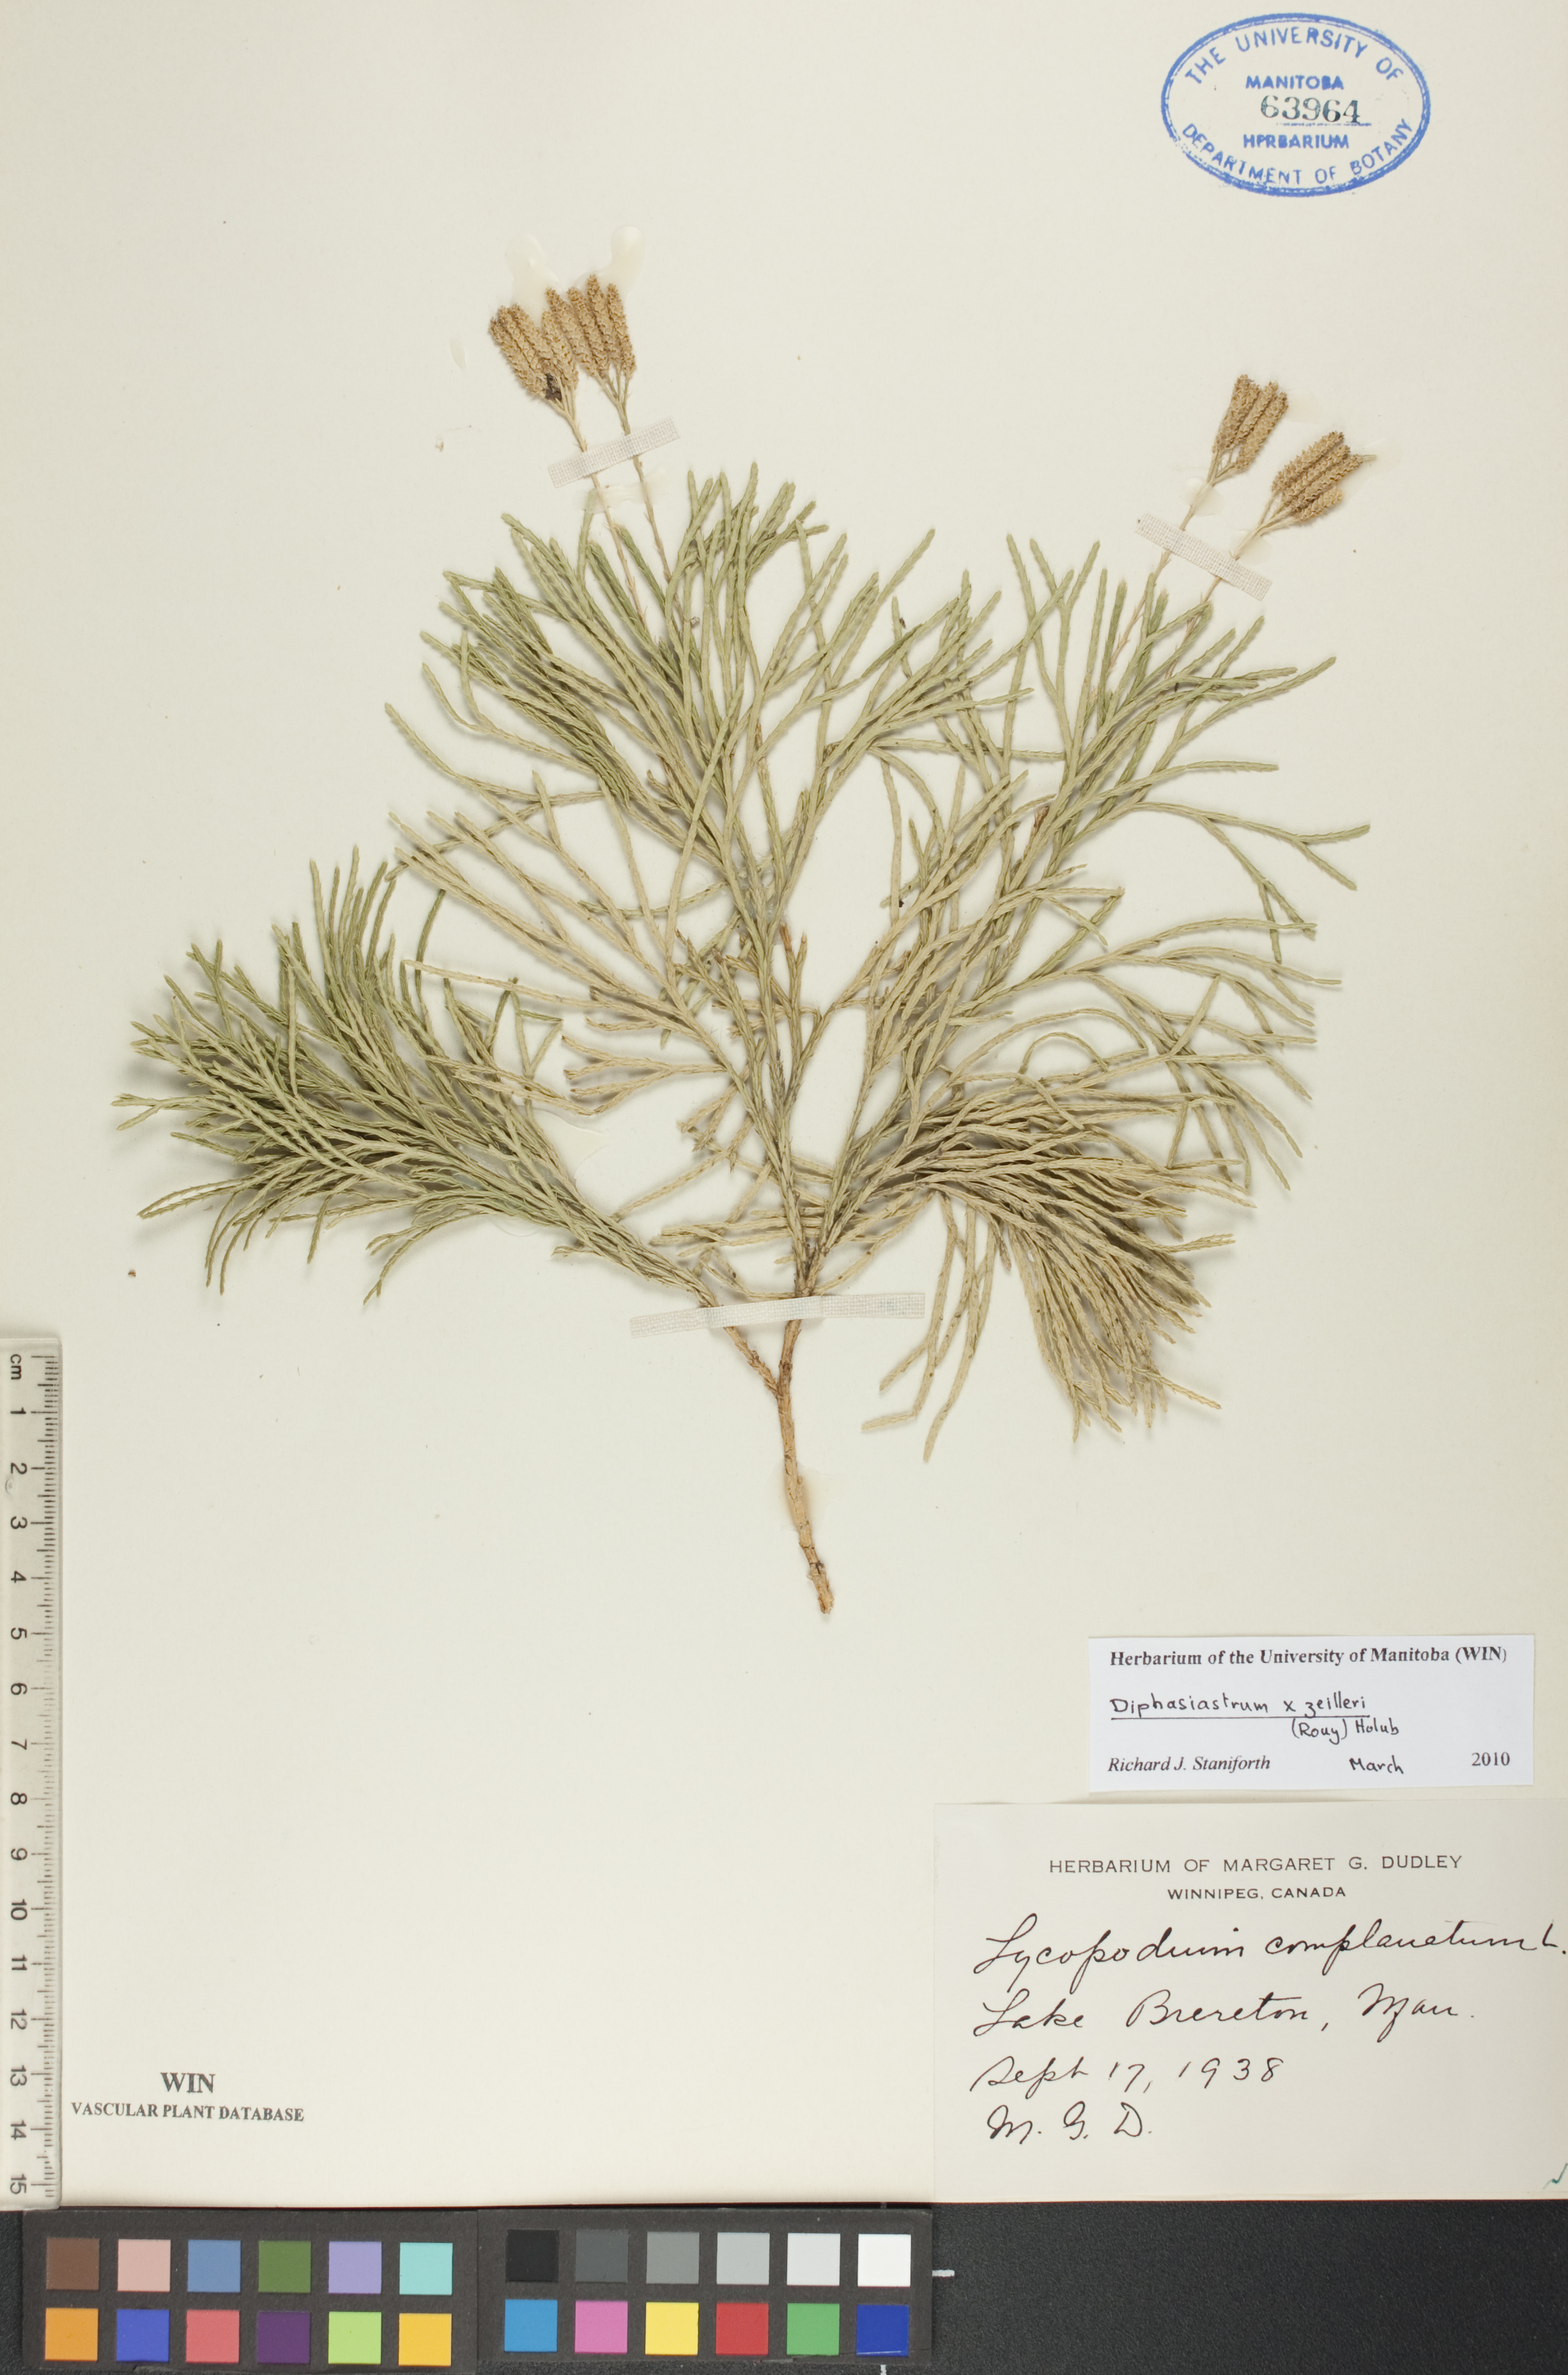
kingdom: Plantae
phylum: Tracheophyta
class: Lycopodiopsida
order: Lycopodiales
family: Lycopodiaceae
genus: Diphasiastrum
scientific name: Diphasiastrum zeilleri
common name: Zeiller's clubmoss
